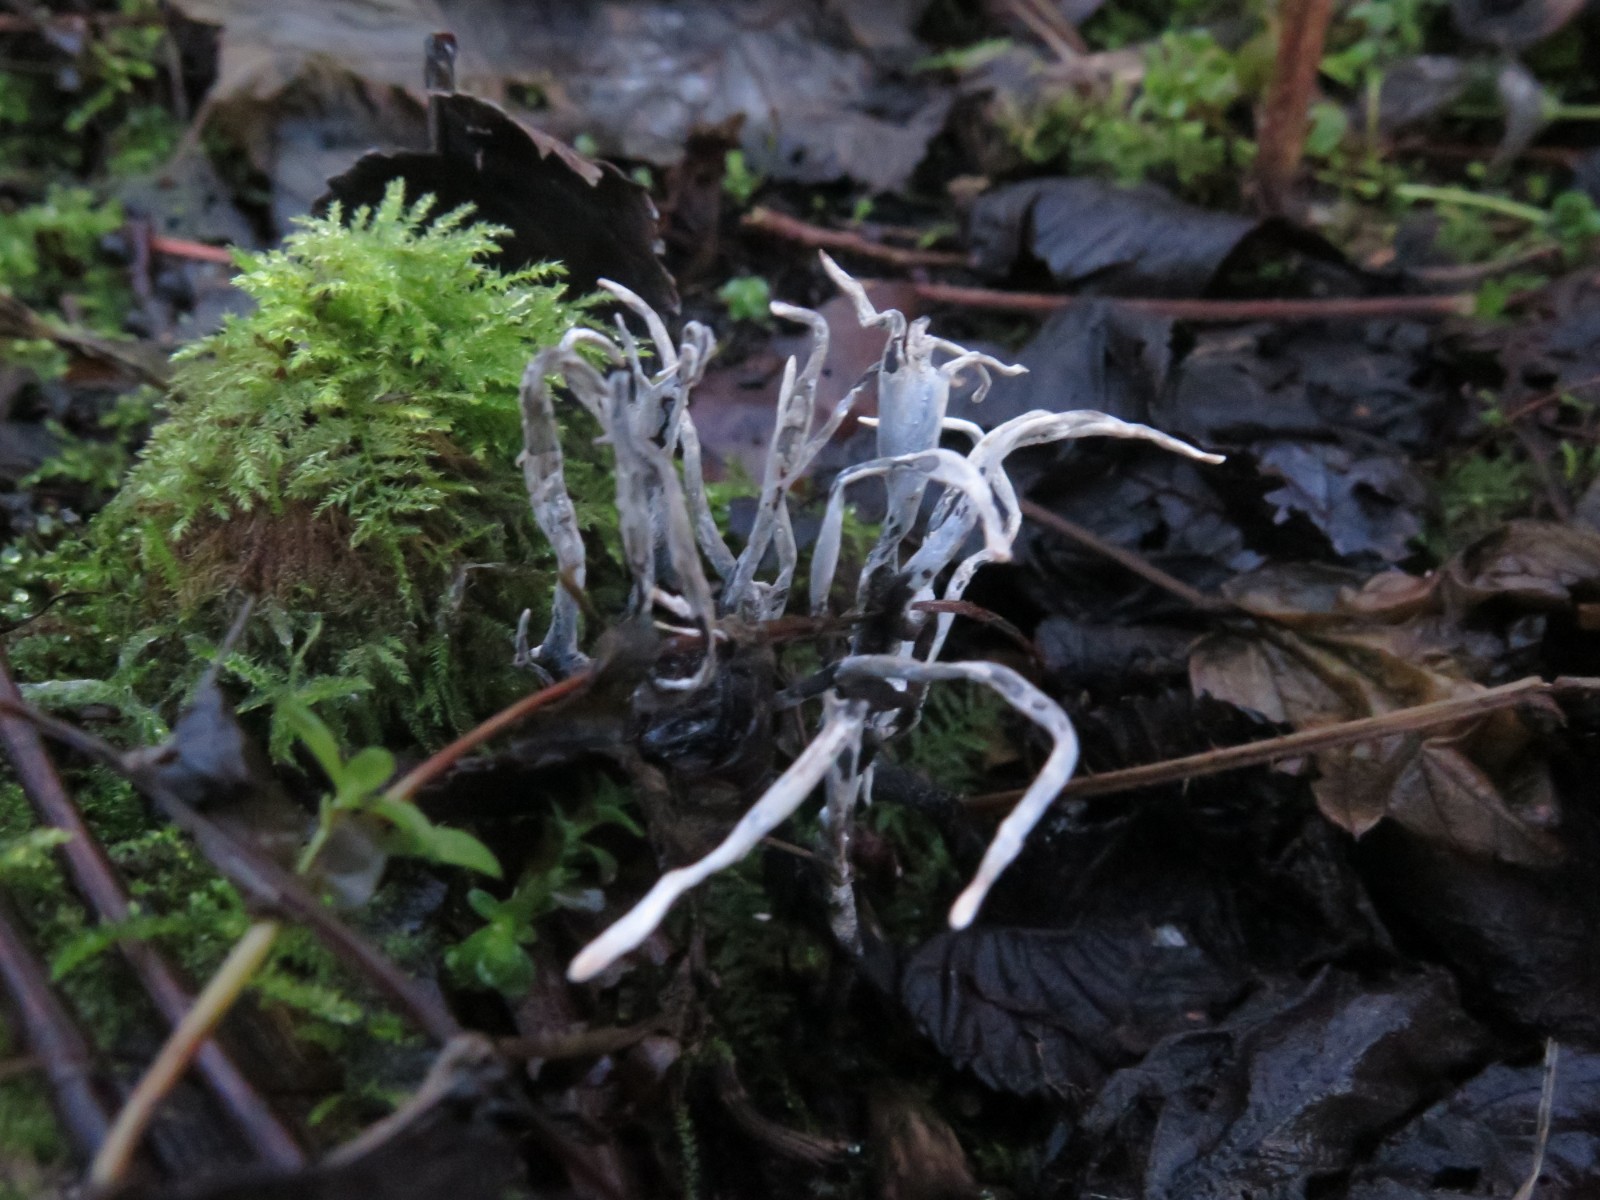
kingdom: Fungi
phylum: Ascomycota
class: Sordariomycetes
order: Xylariales
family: Xylariaceae
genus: Xylaria
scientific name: Xylaria hypoxylon
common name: grenet stødsvamp
